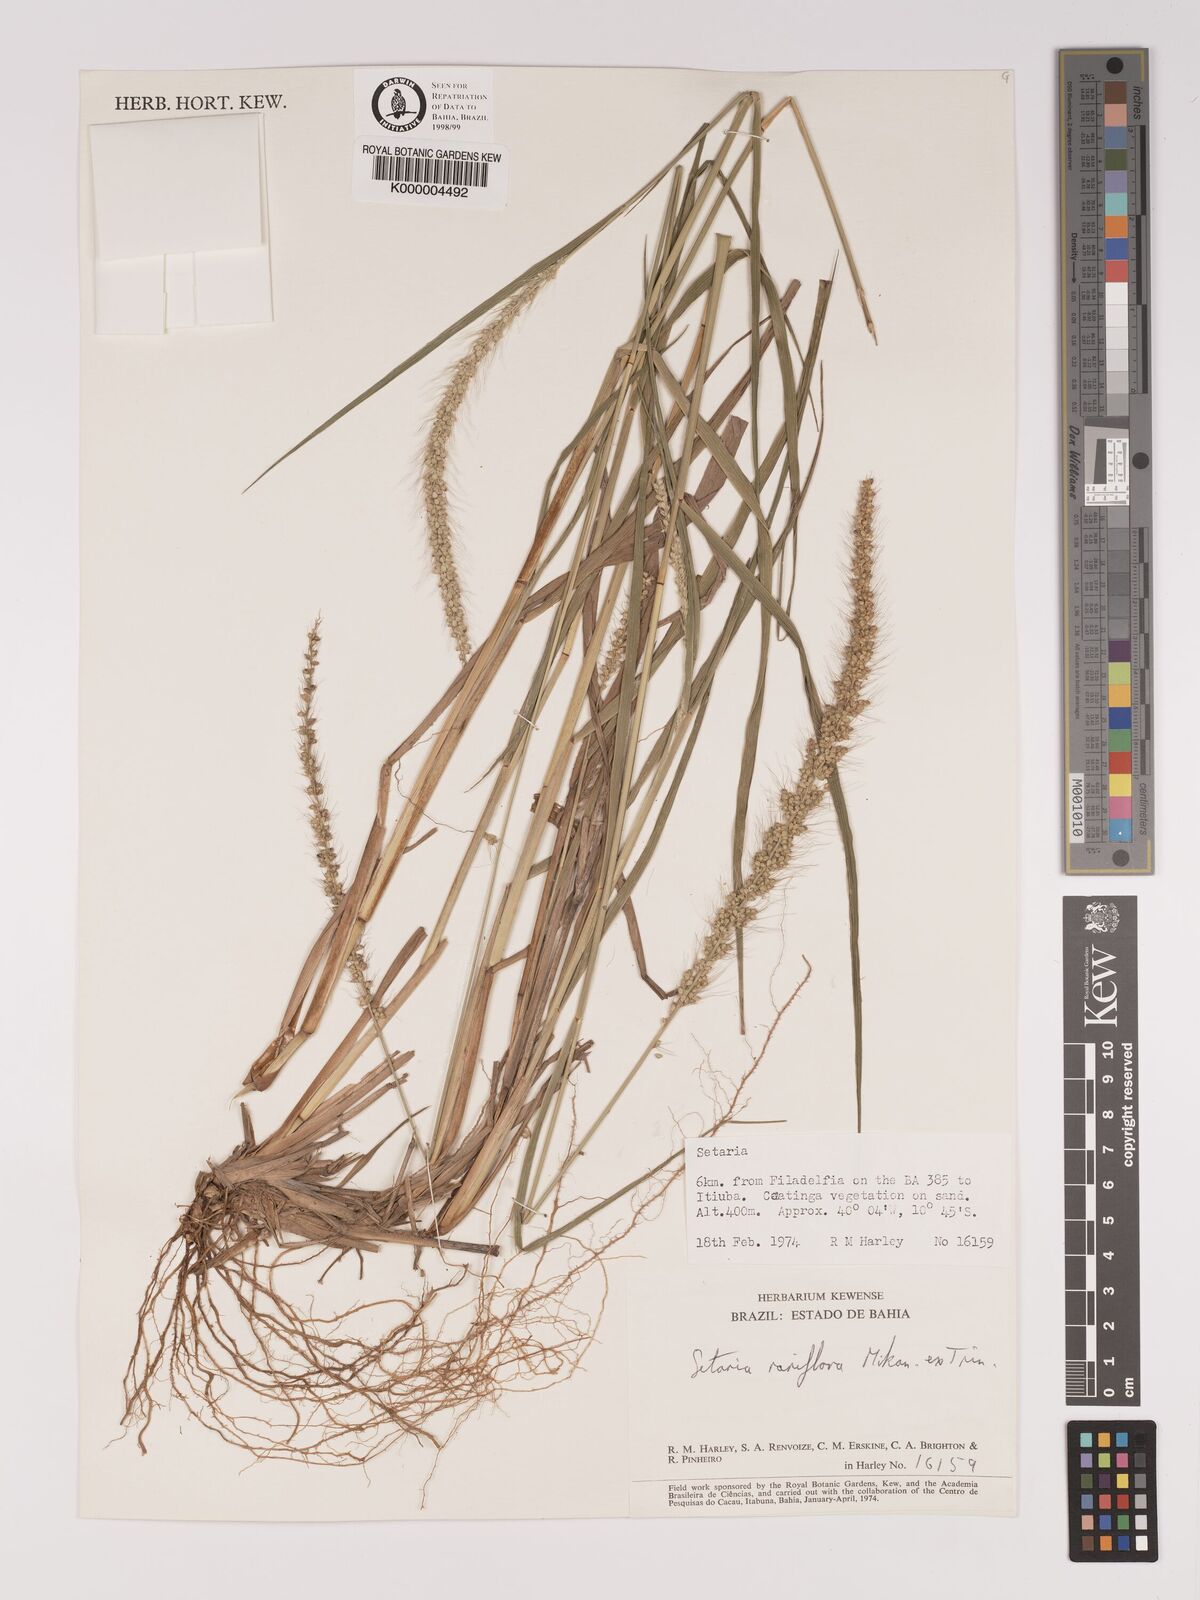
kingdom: Plantae
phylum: Tracheophyta
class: Liliopsida
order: Poales
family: Poaceae
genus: Setaria
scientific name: Setaria tenax
